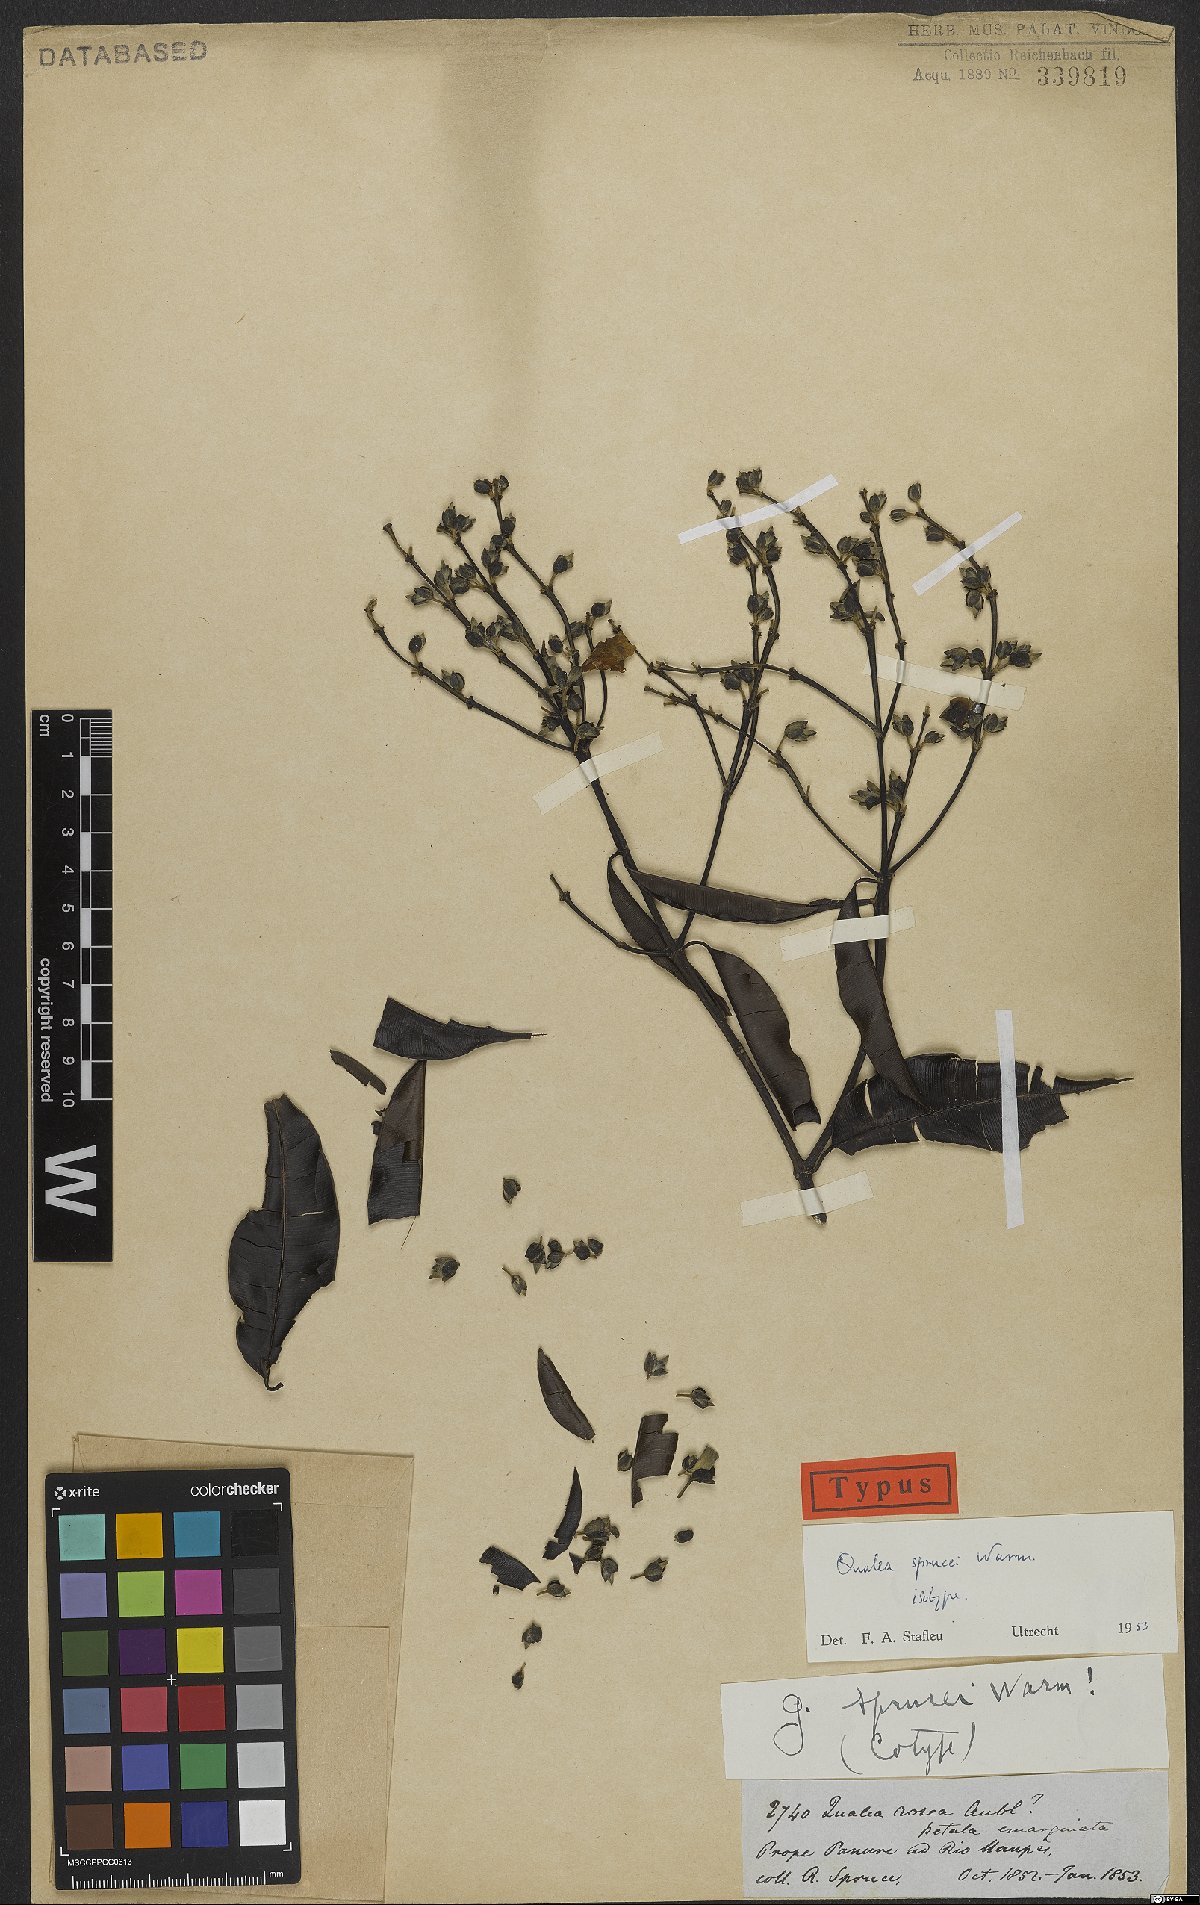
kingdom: Plantae
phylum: Tracheophyta
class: Magnoliopsida
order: Myrtales
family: Vochysiaceae
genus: Qualea
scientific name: Qualea sprucei
